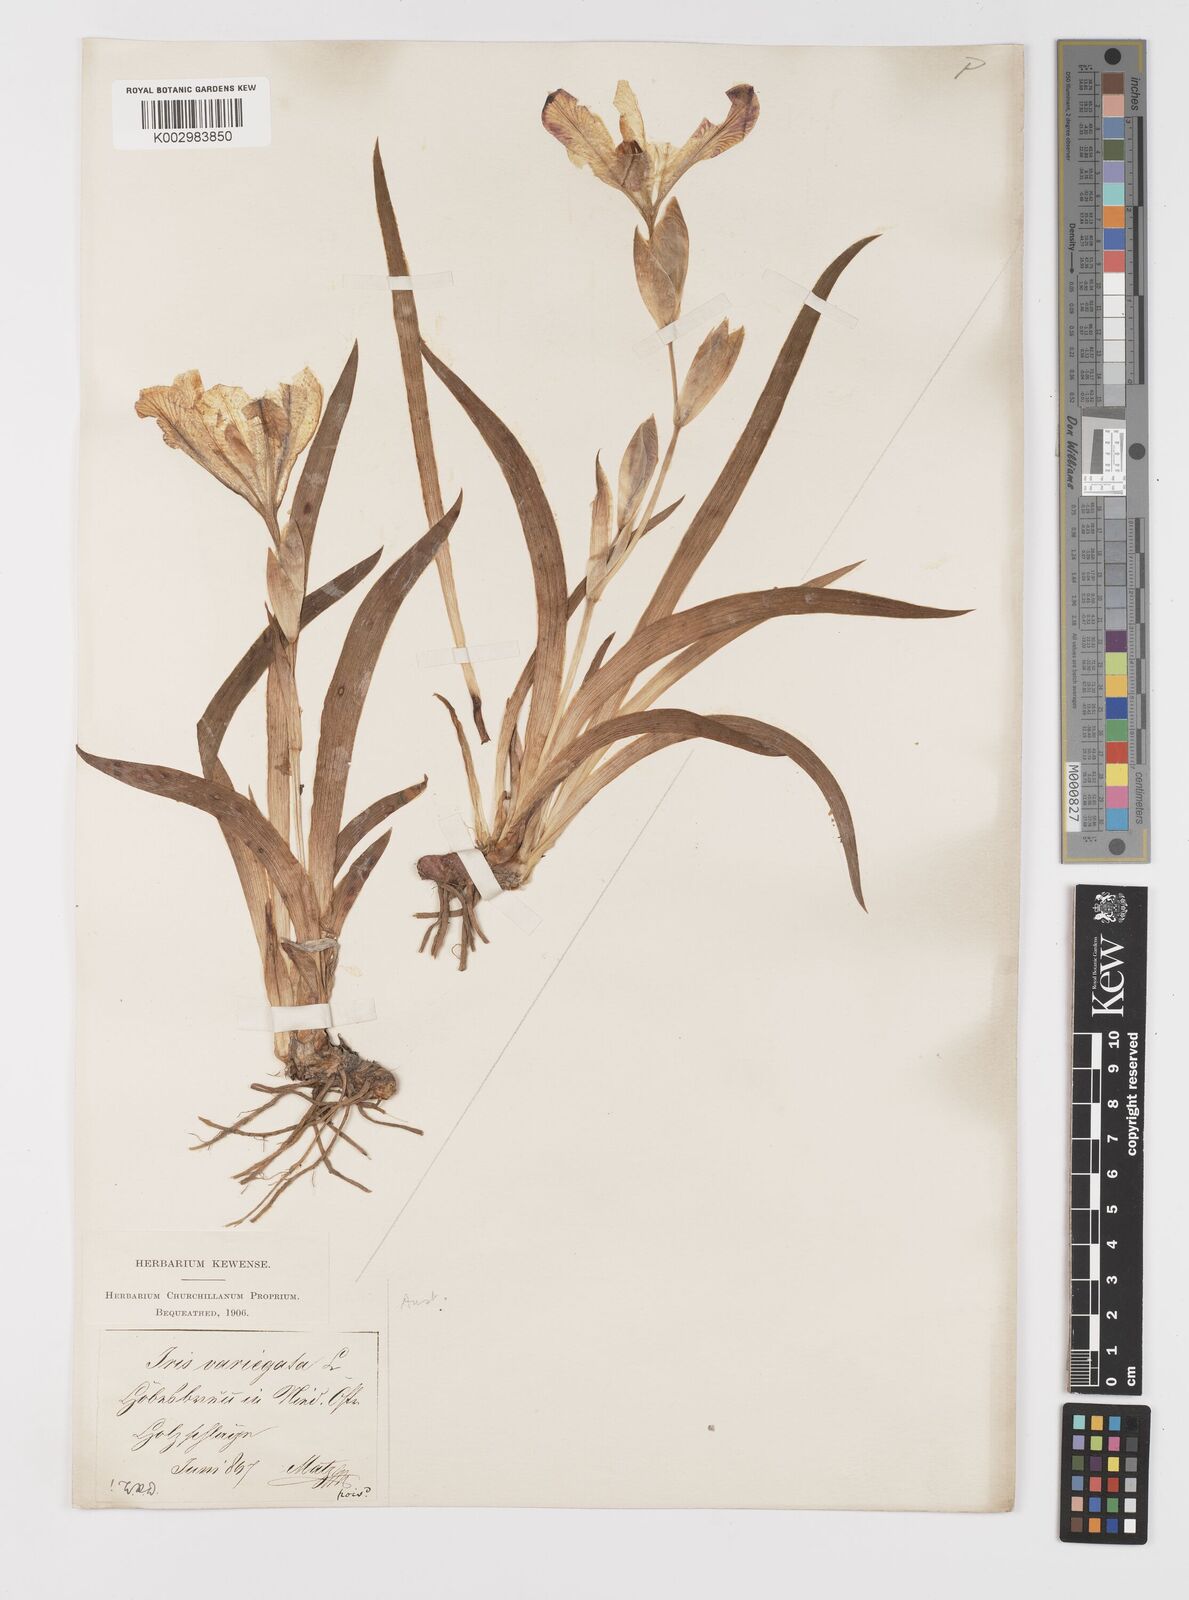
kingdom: Plantae
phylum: Tracheophyta
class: Liliopsida
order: Asparagales
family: Iridaceae
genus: Iris
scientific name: Iris variegata
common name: Hungarian iris
